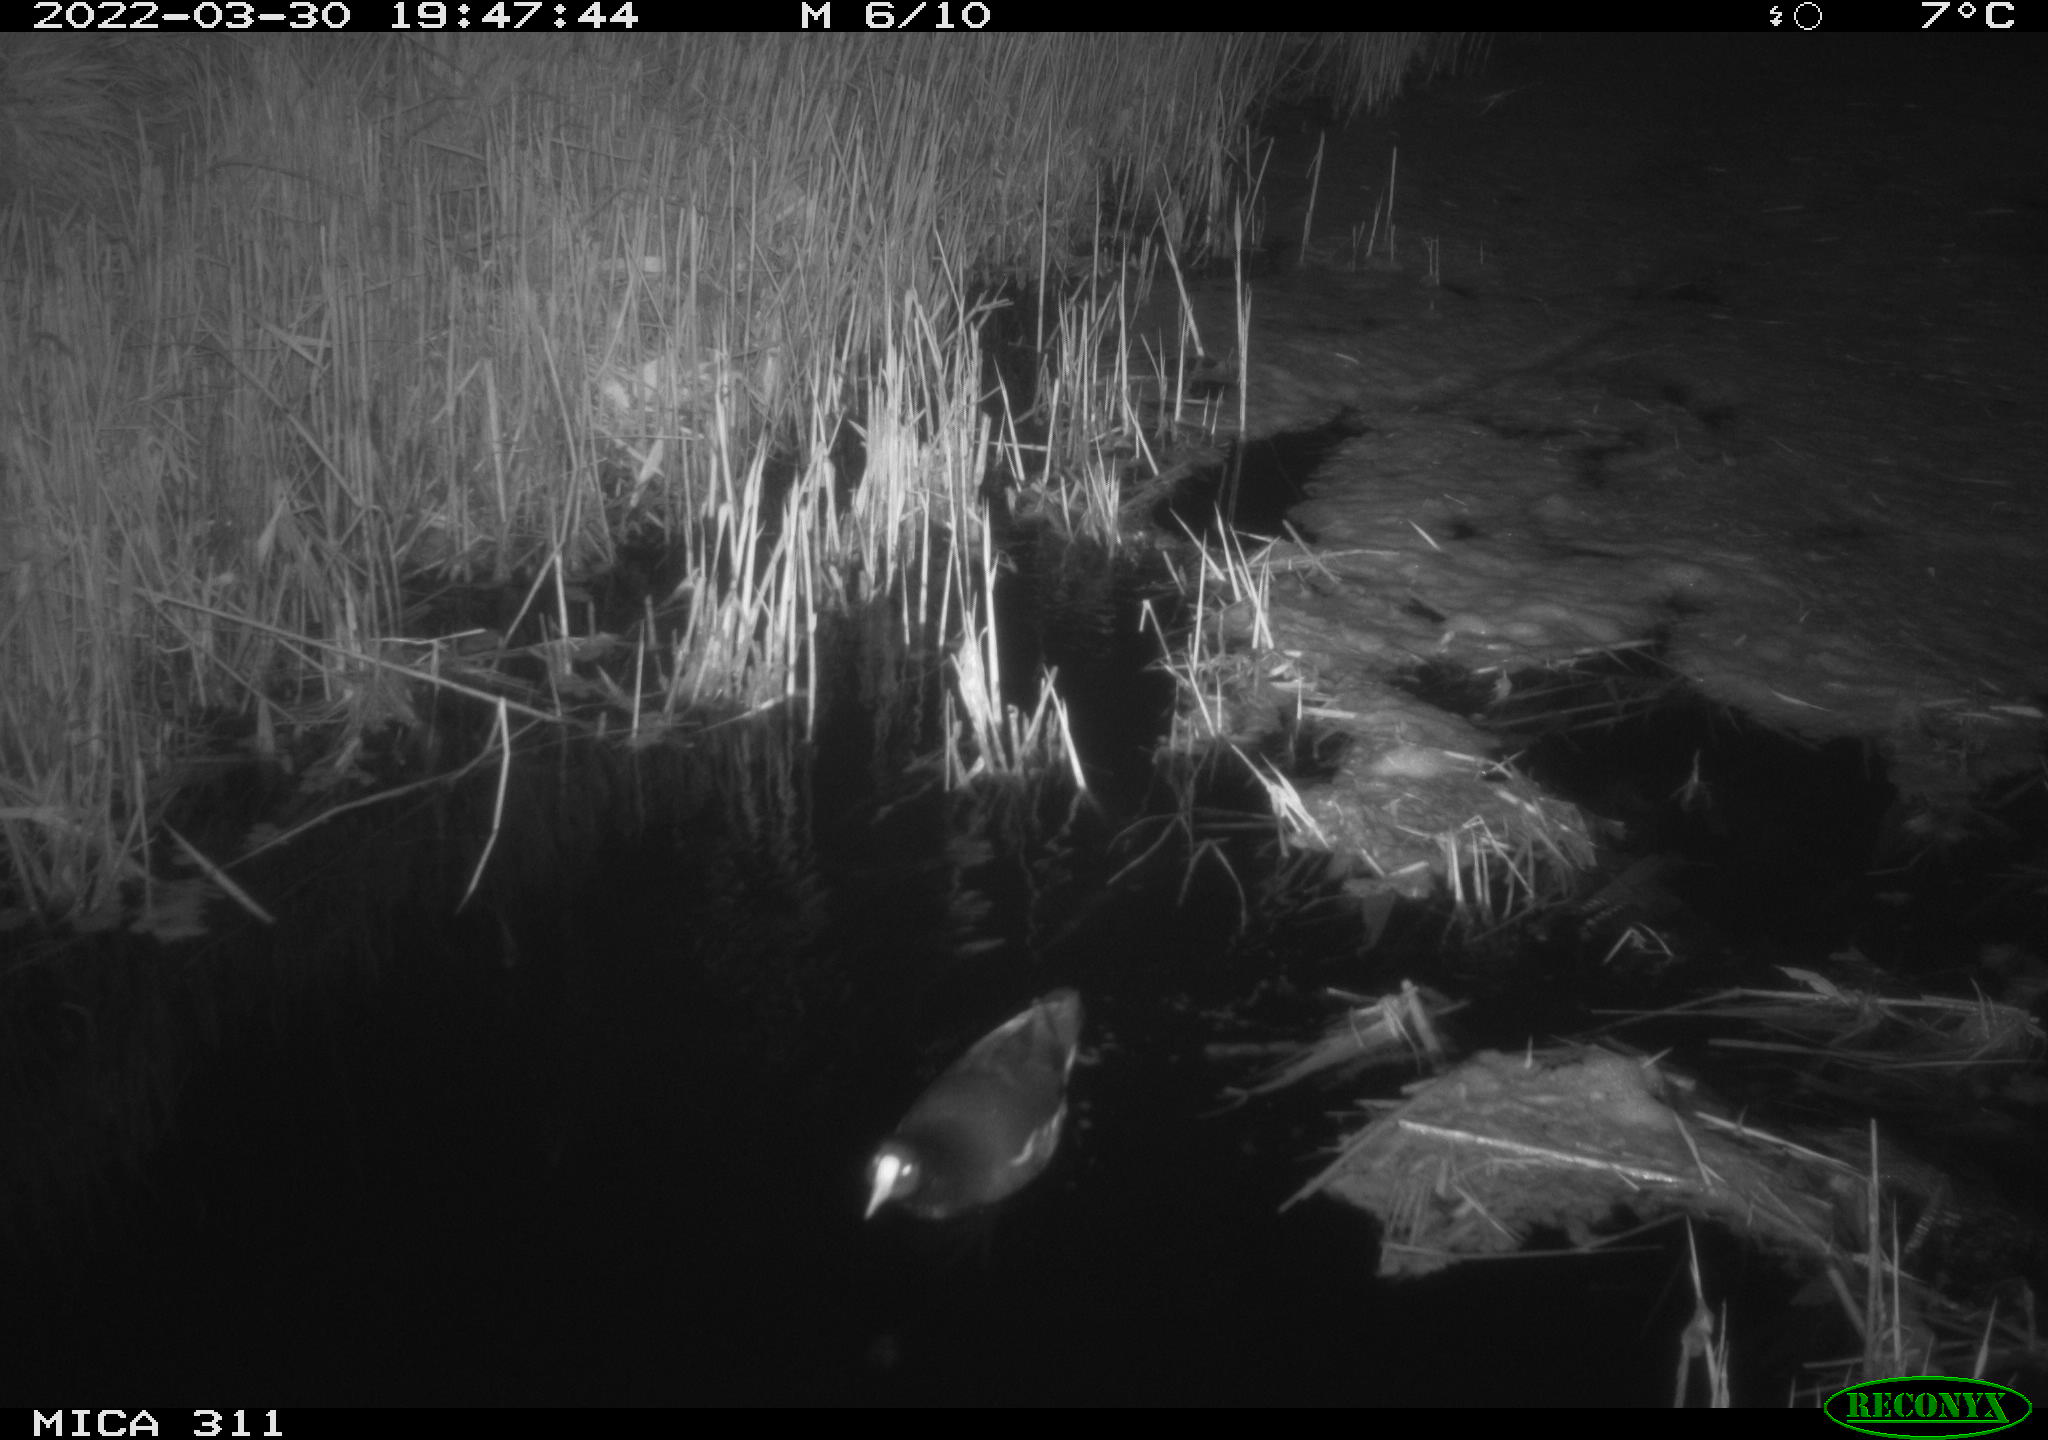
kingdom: Animalia
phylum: Chordata
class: Aves
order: Gruiformes
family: Rallidae
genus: Gallinula
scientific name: Gallinula chloropus
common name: Common moorhen
